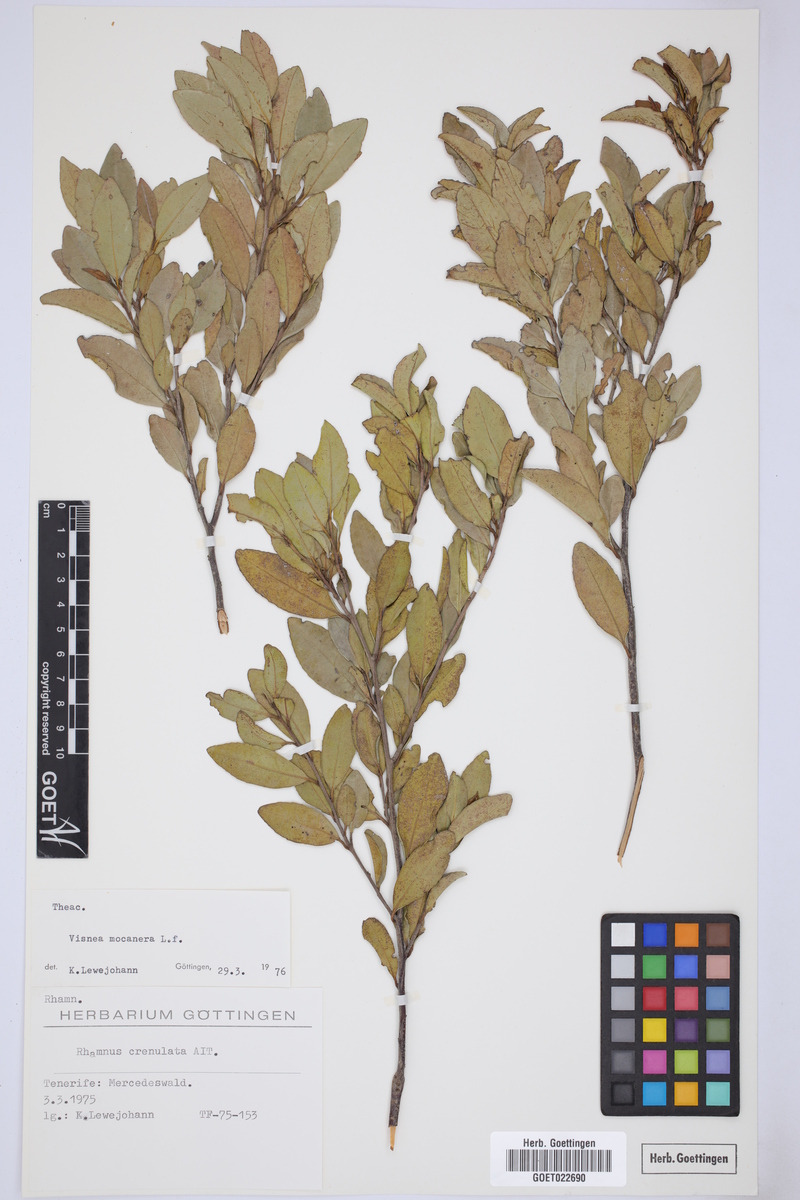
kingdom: Plantae
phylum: Tracheophyta
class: Magnoliopsida
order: Ericales
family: Pentaphylacaceae
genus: Visnea
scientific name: Visnea mocanera
